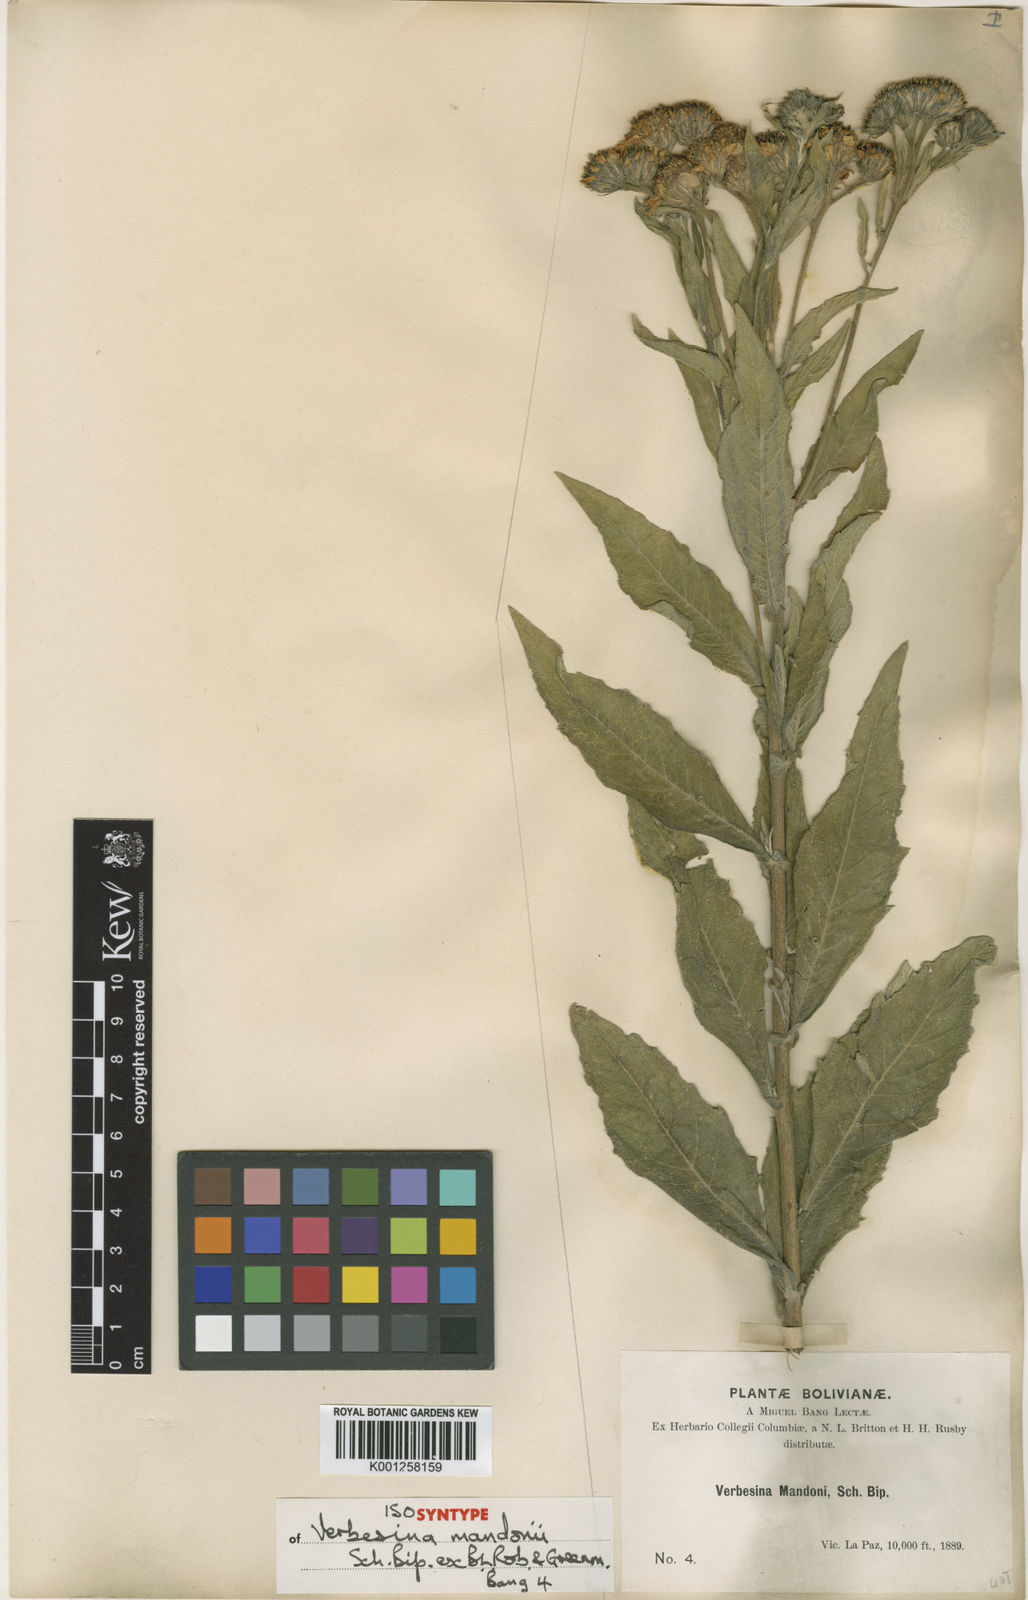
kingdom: Plantae
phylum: Tracheophyta
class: Magnoliopsida
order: Asterales
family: Asteraceae
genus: Verbesina
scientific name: Verbesina
